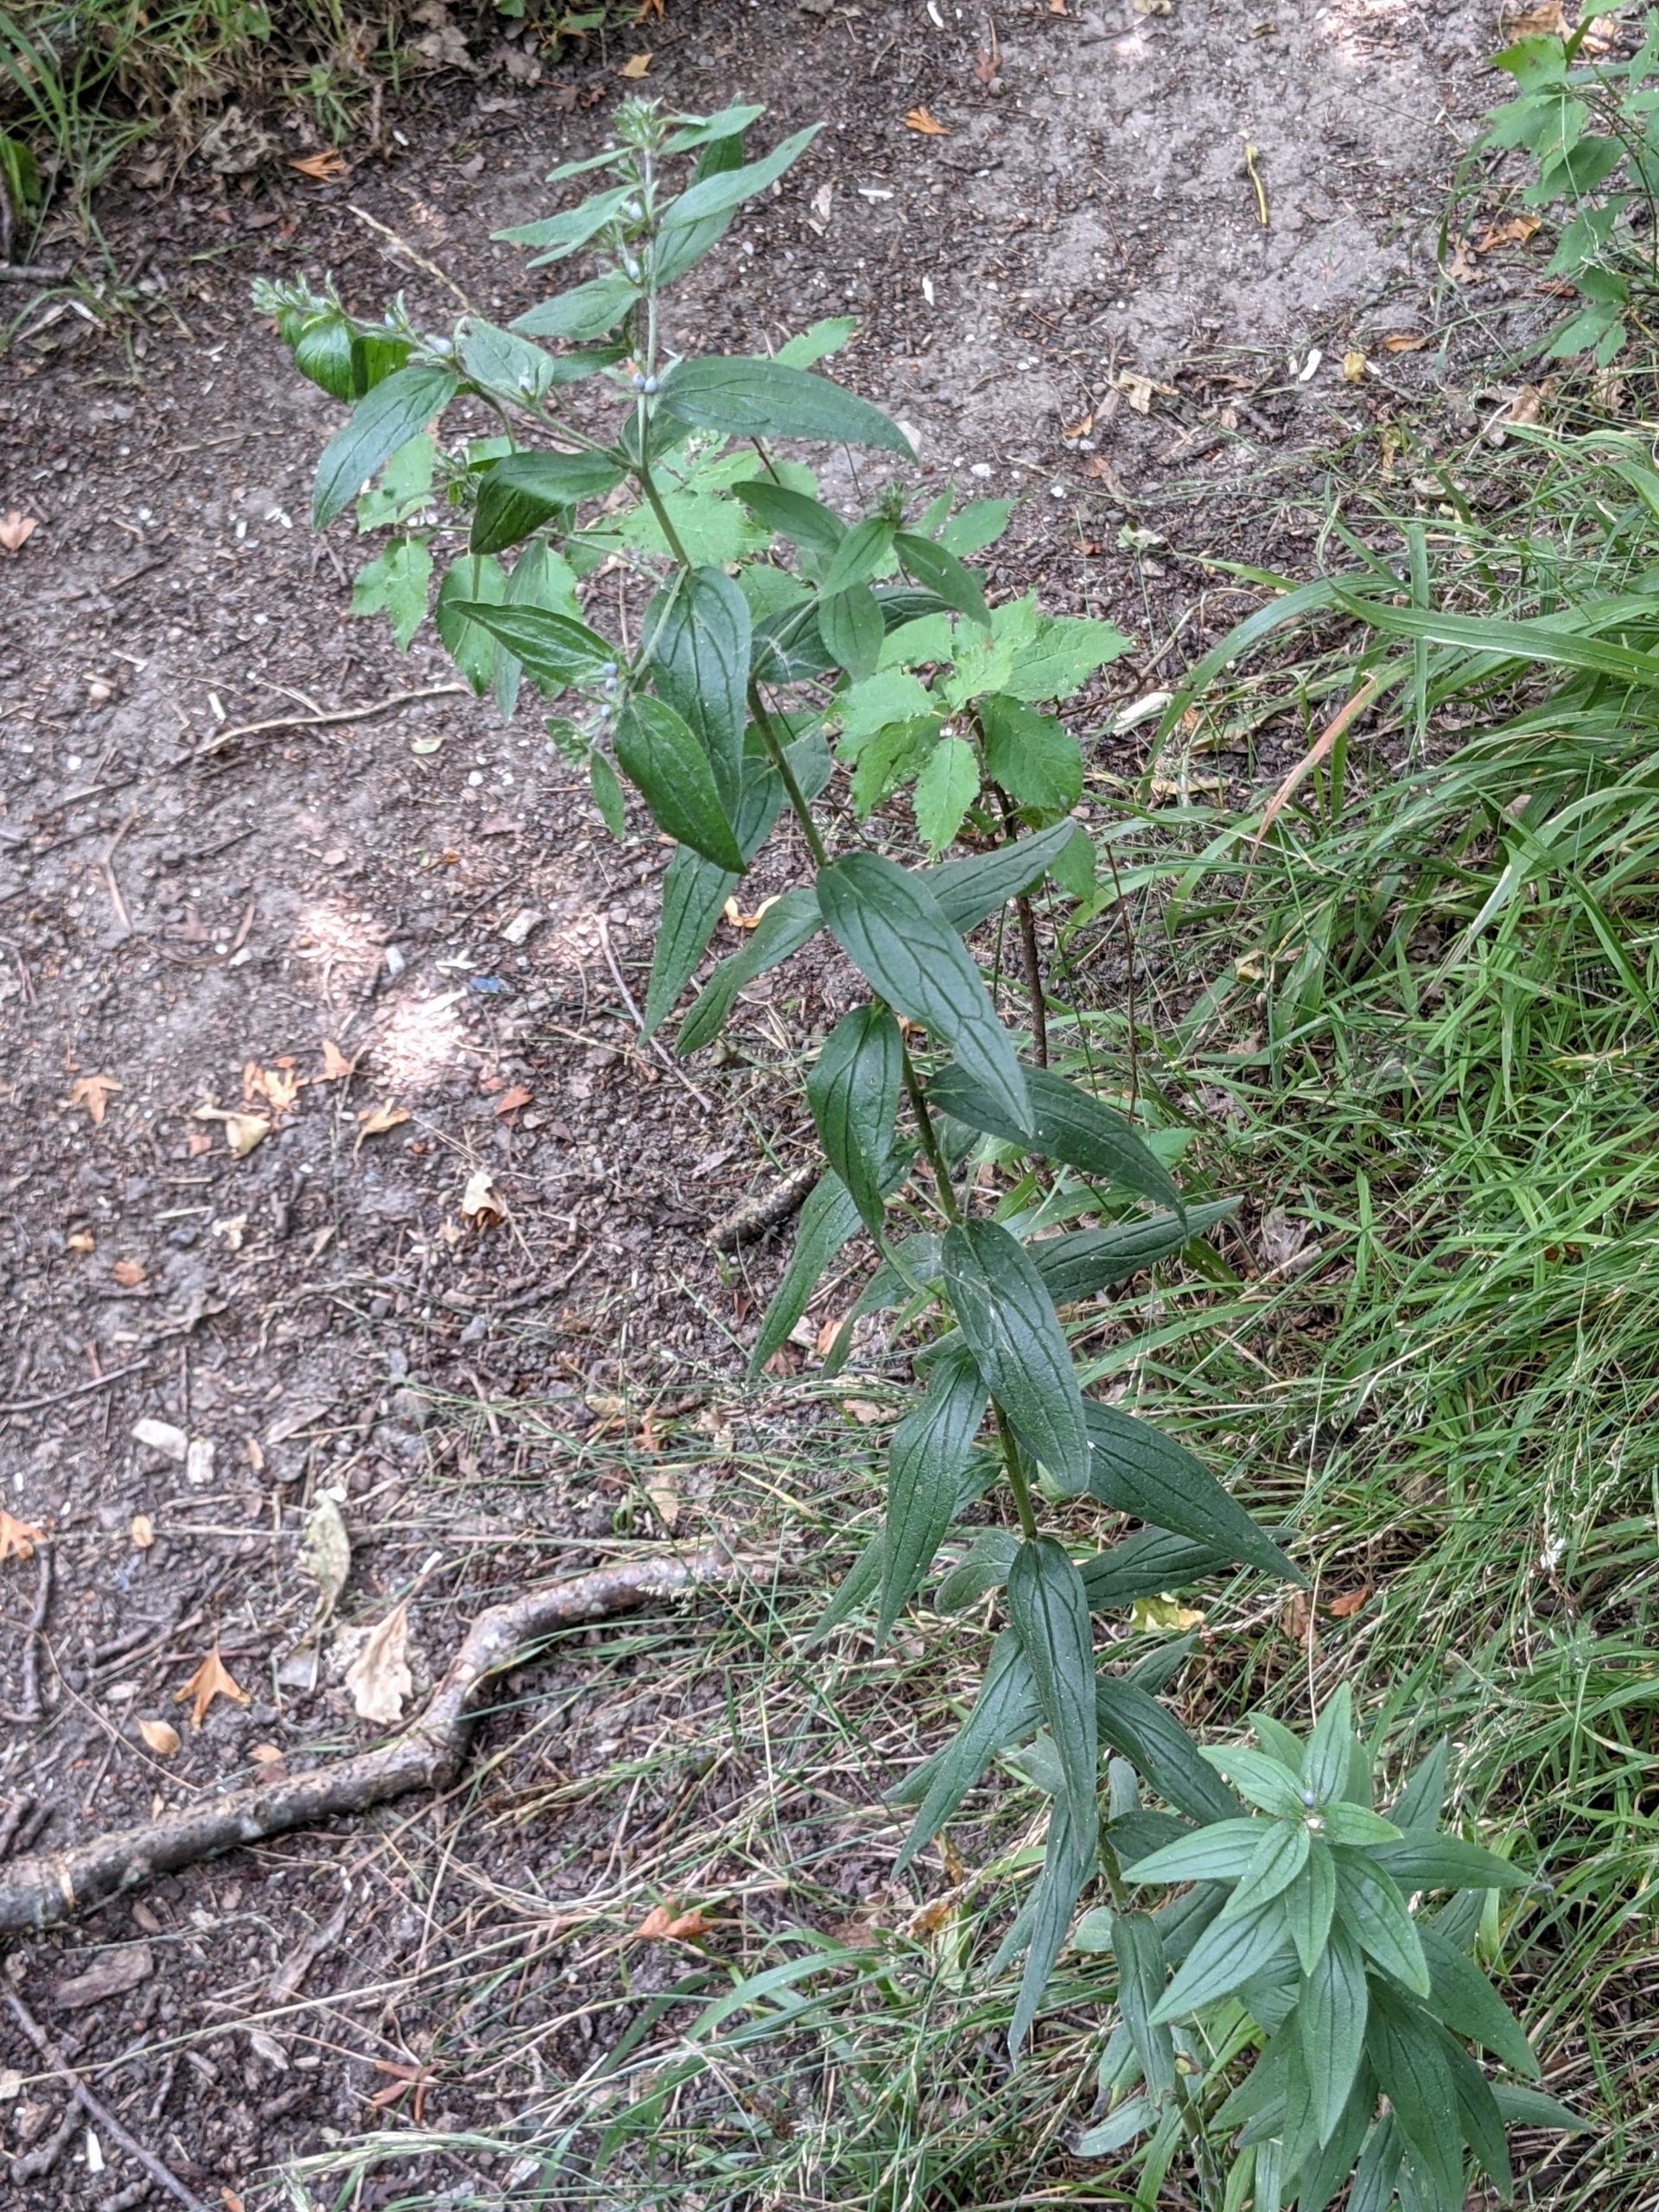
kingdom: Plantae
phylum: Tracheophyta
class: Magnoliopsida
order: Boraginales
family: Boraginaceae
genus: Lithospermum
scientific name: Lithospermum officinale
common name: Læge-stenfrø
